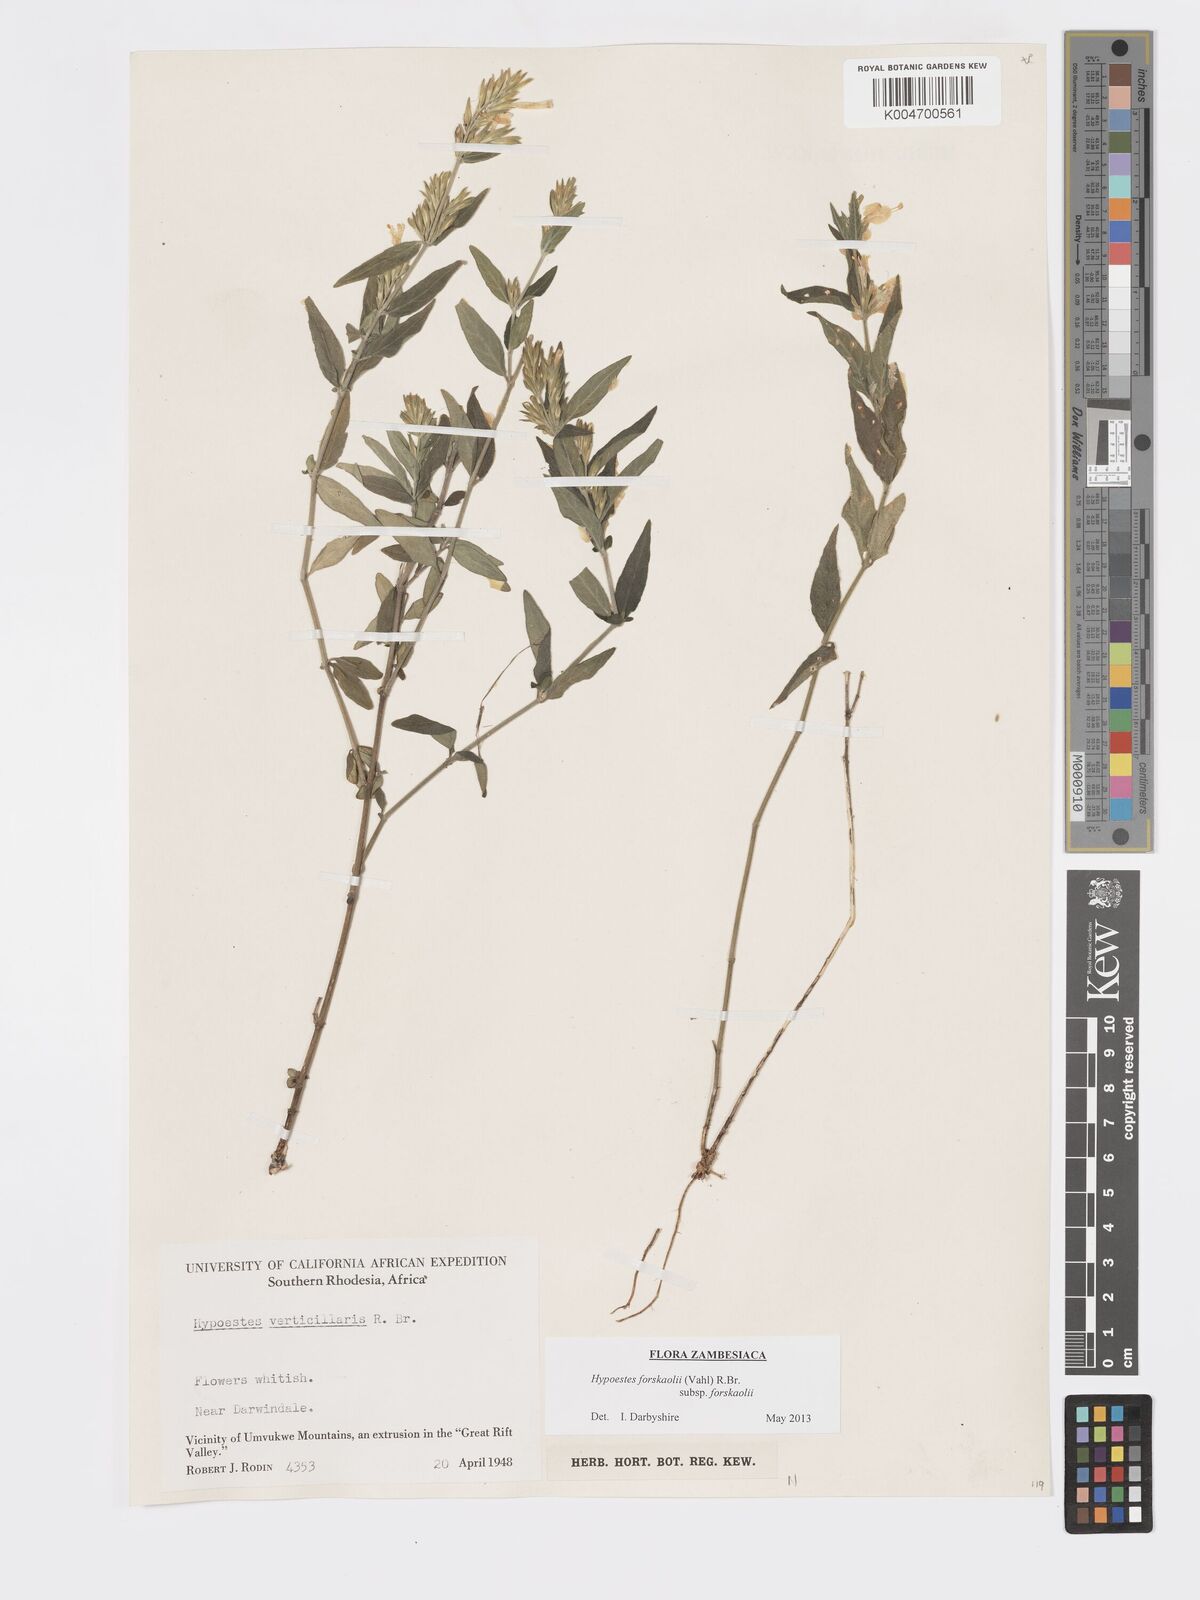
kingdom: Plantae
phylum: Tracheophyta
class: Magnoliopsida
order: Lamiales
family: Acanthaceae
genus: Hypoestes
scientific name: Hypoestes forskaolii
